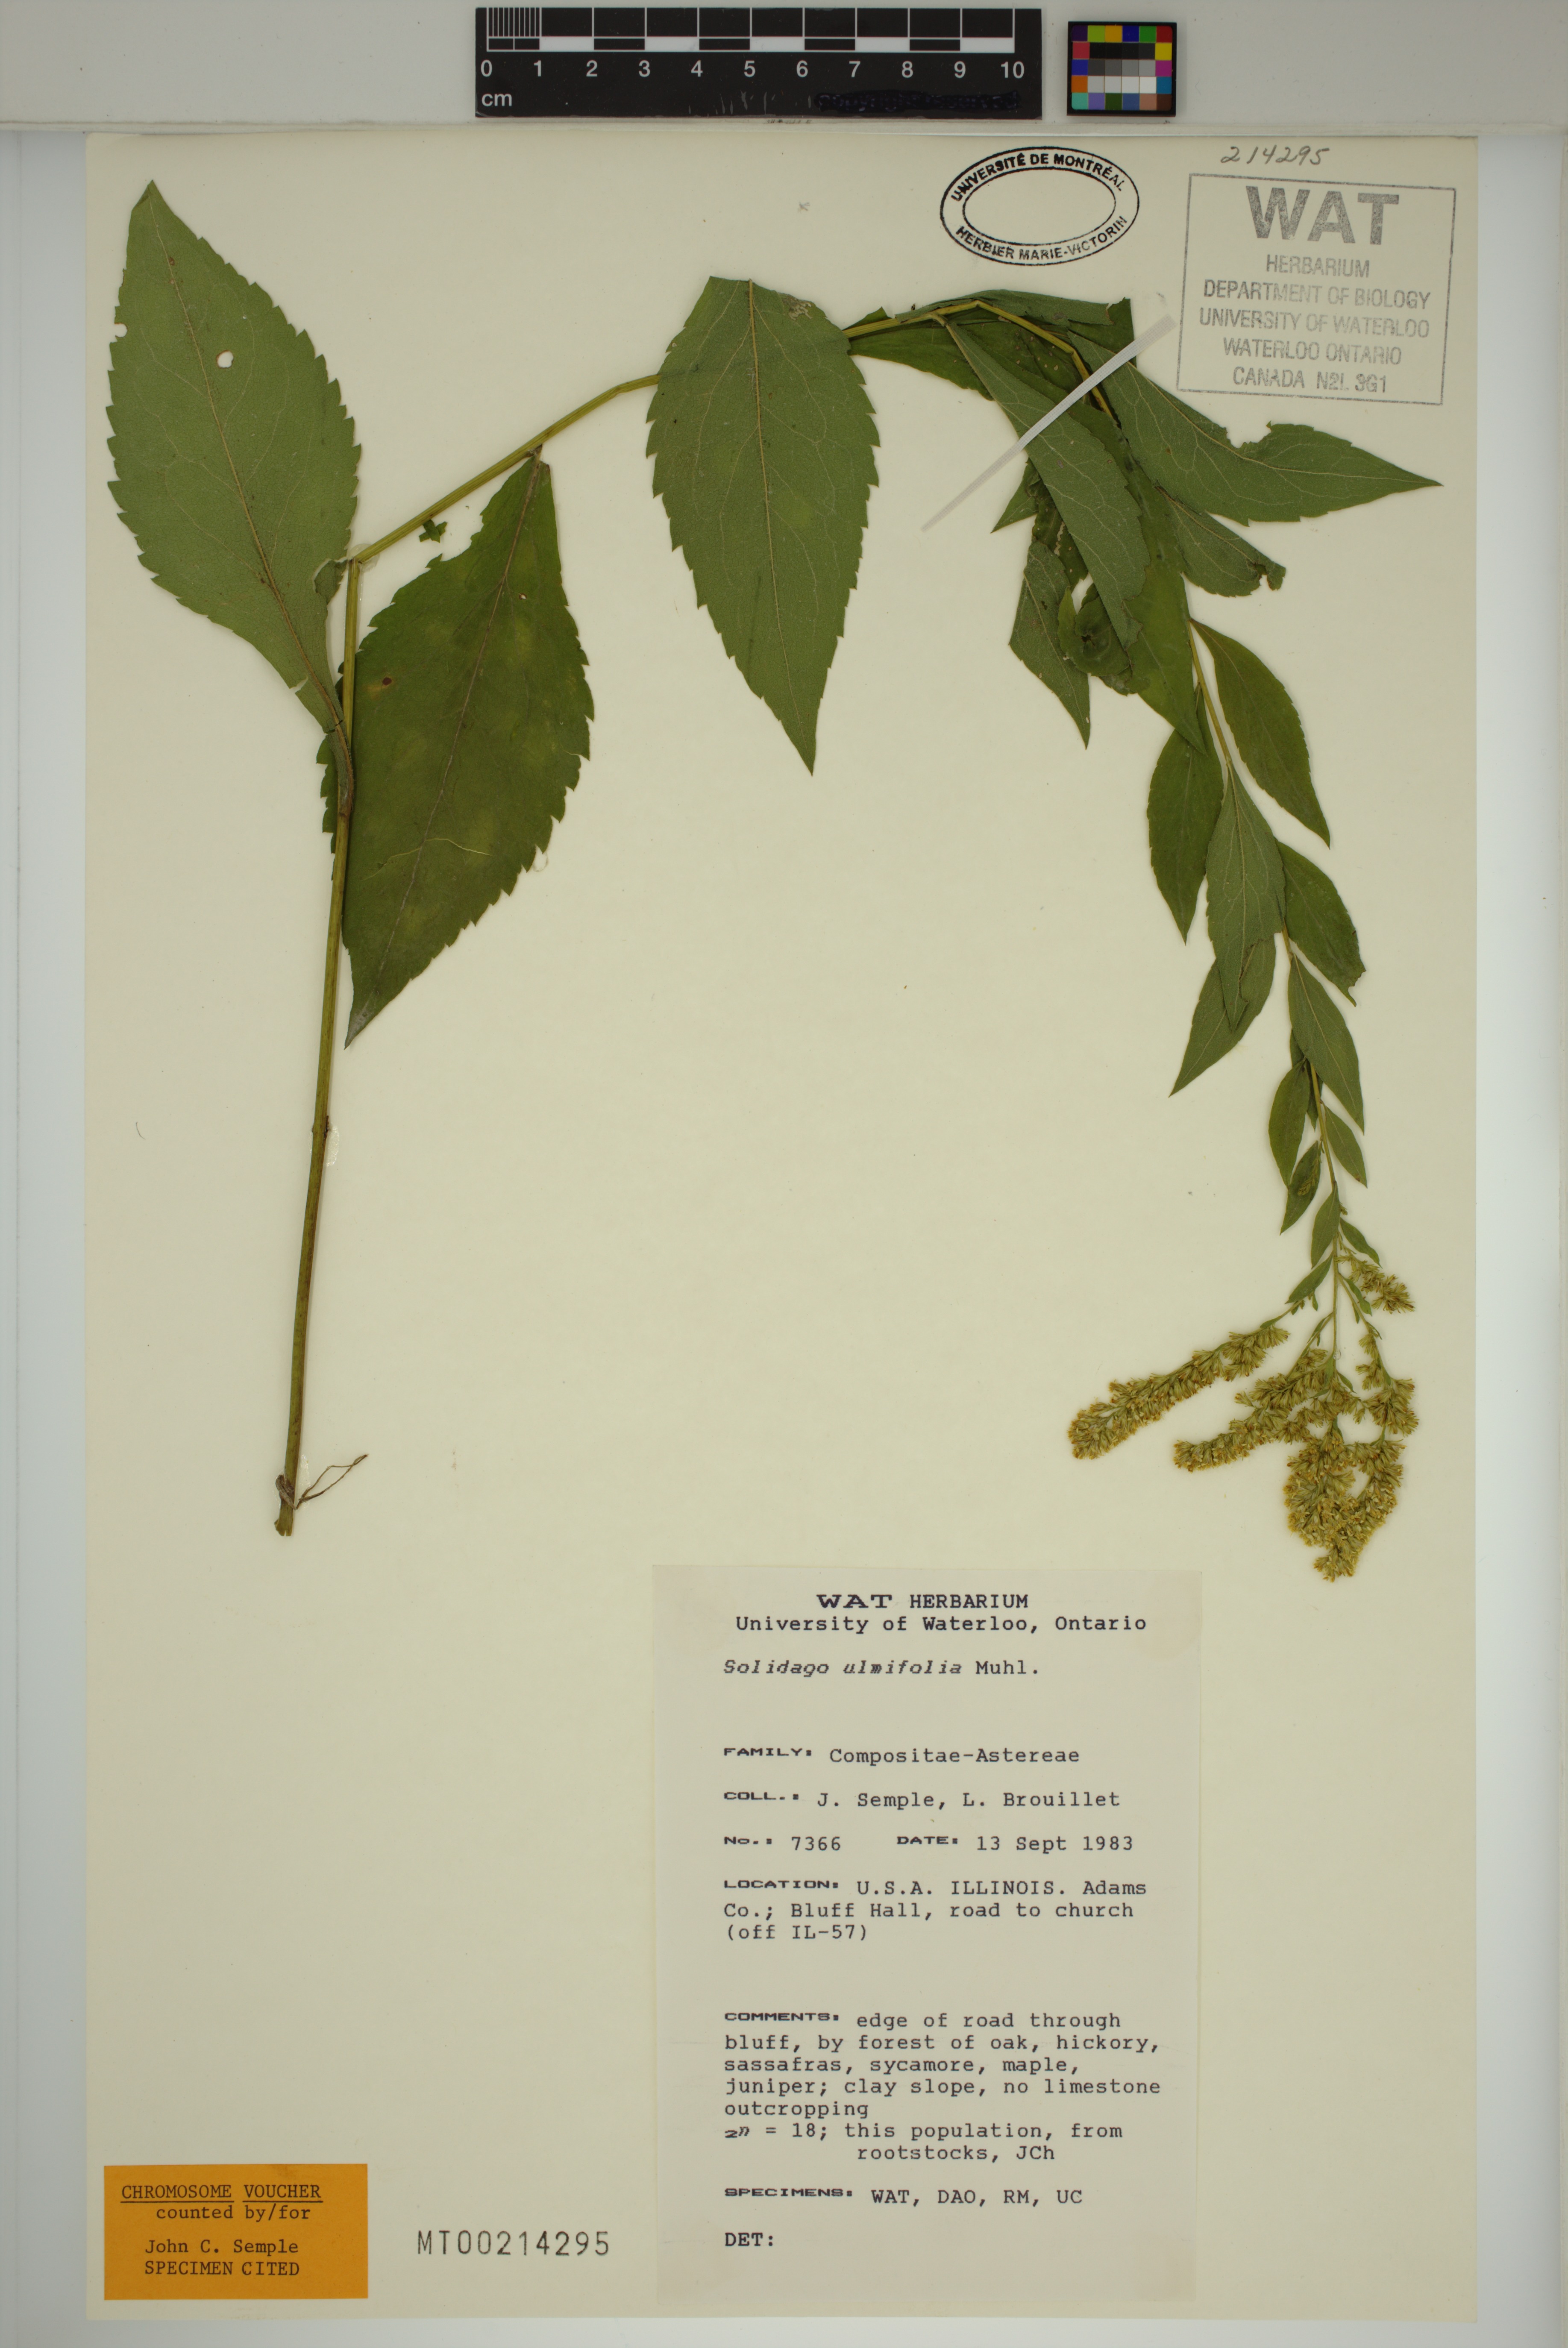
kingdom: Plantae
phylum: Tracheophyta
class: Magnoliopsida
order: Asterales
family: Asteraceae
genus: Solidago
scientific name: Solidago ulmifolia
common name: Elm-leaf goldenrod
